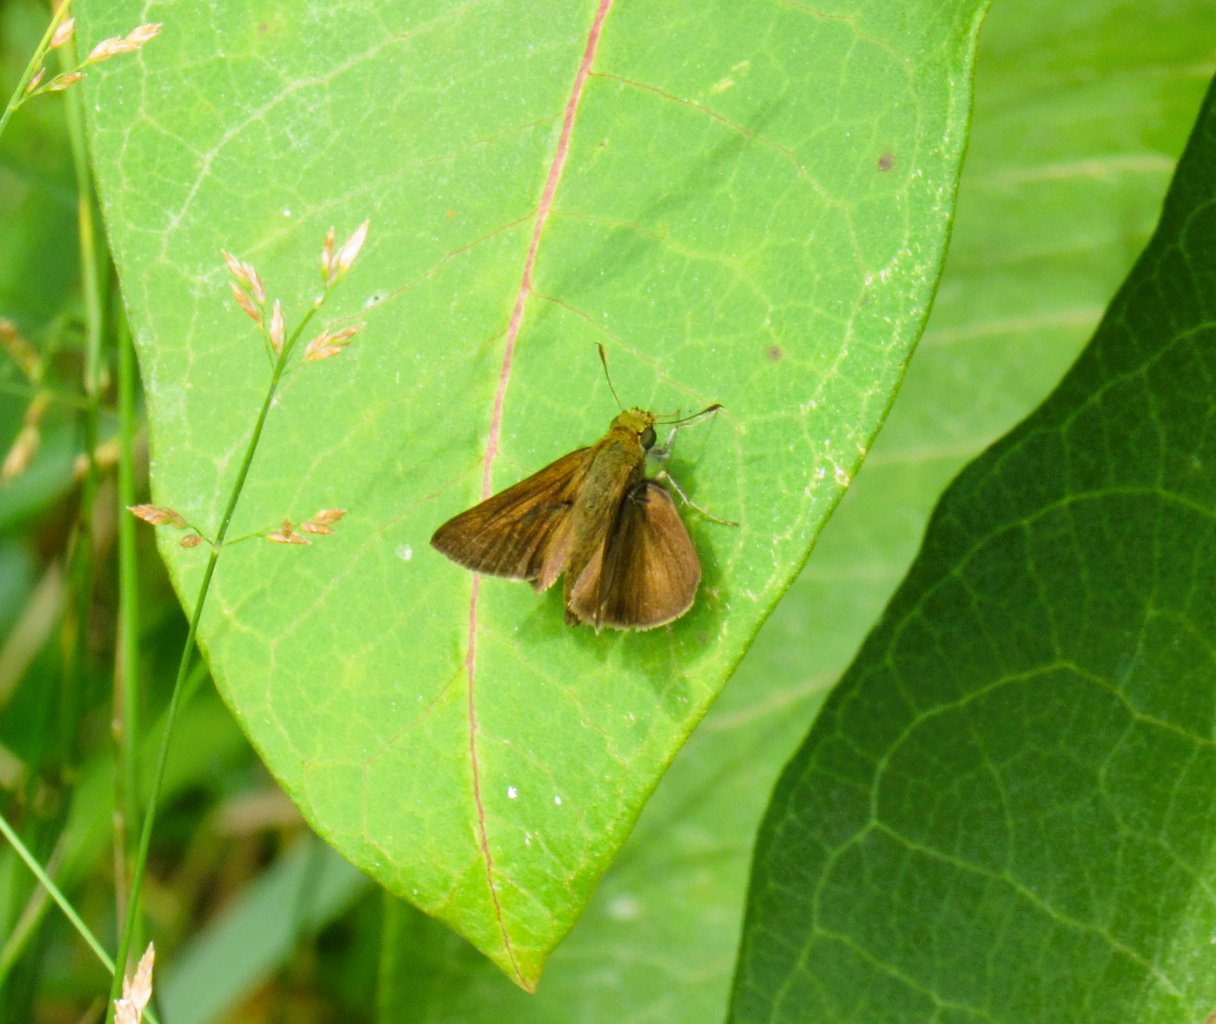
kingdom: Animalia
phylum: Arthropoda
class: Insecta
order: Lepidoptera
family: Hesperiidae
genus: Euphyes
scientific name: Euphyes vestris
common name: Dun Skipper
